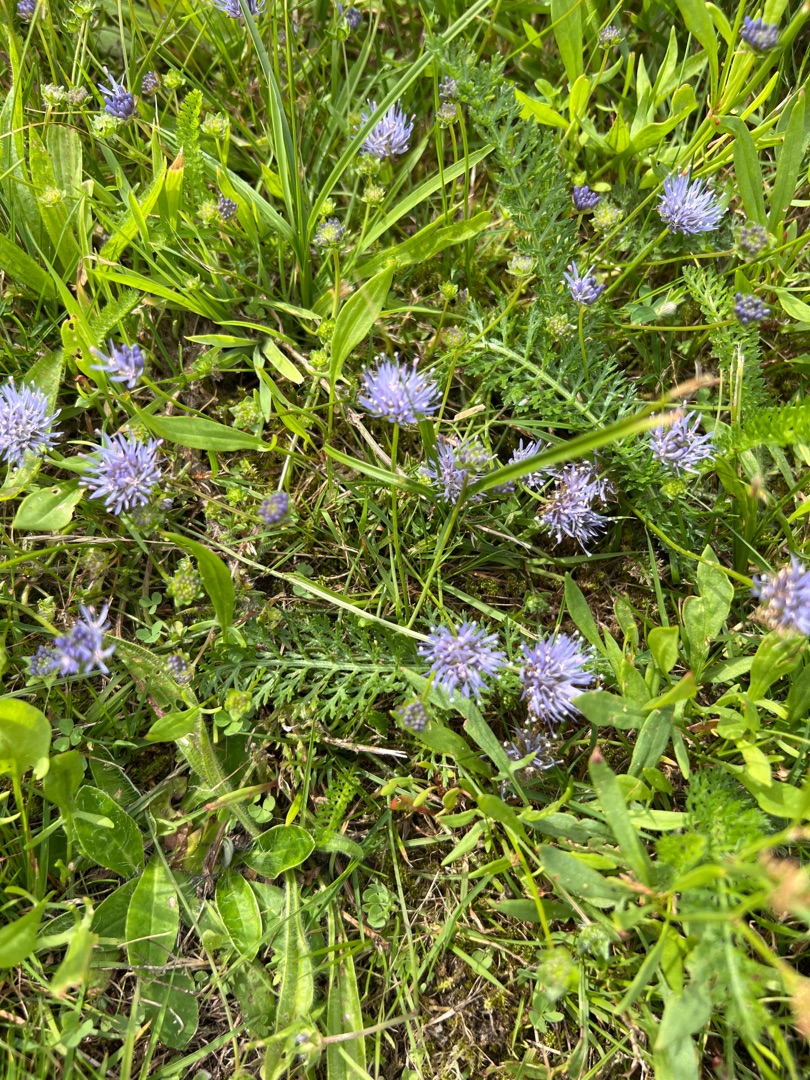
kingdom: Plantae
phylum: Tracheophyta
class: Magnoliopsida
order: Asterales
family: Campanulaceae
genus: Jasione
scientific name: Jasione montana
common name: Blåmunke
